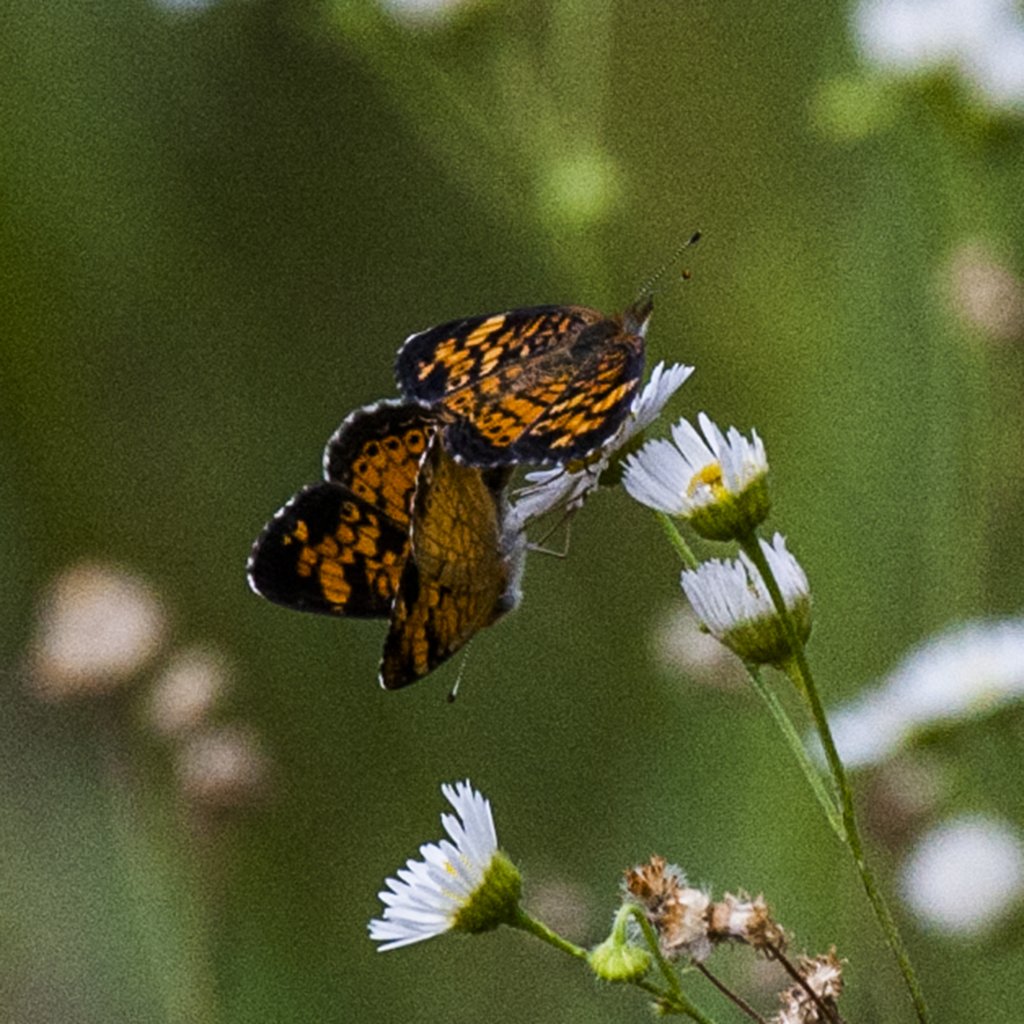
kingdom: Animalia
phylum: Arthropoda
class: Insecta
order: Lepidoptera
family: Nymphalidae
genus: Phyciodes
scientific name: Phyciodes tharos
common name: Pearl Crescent
